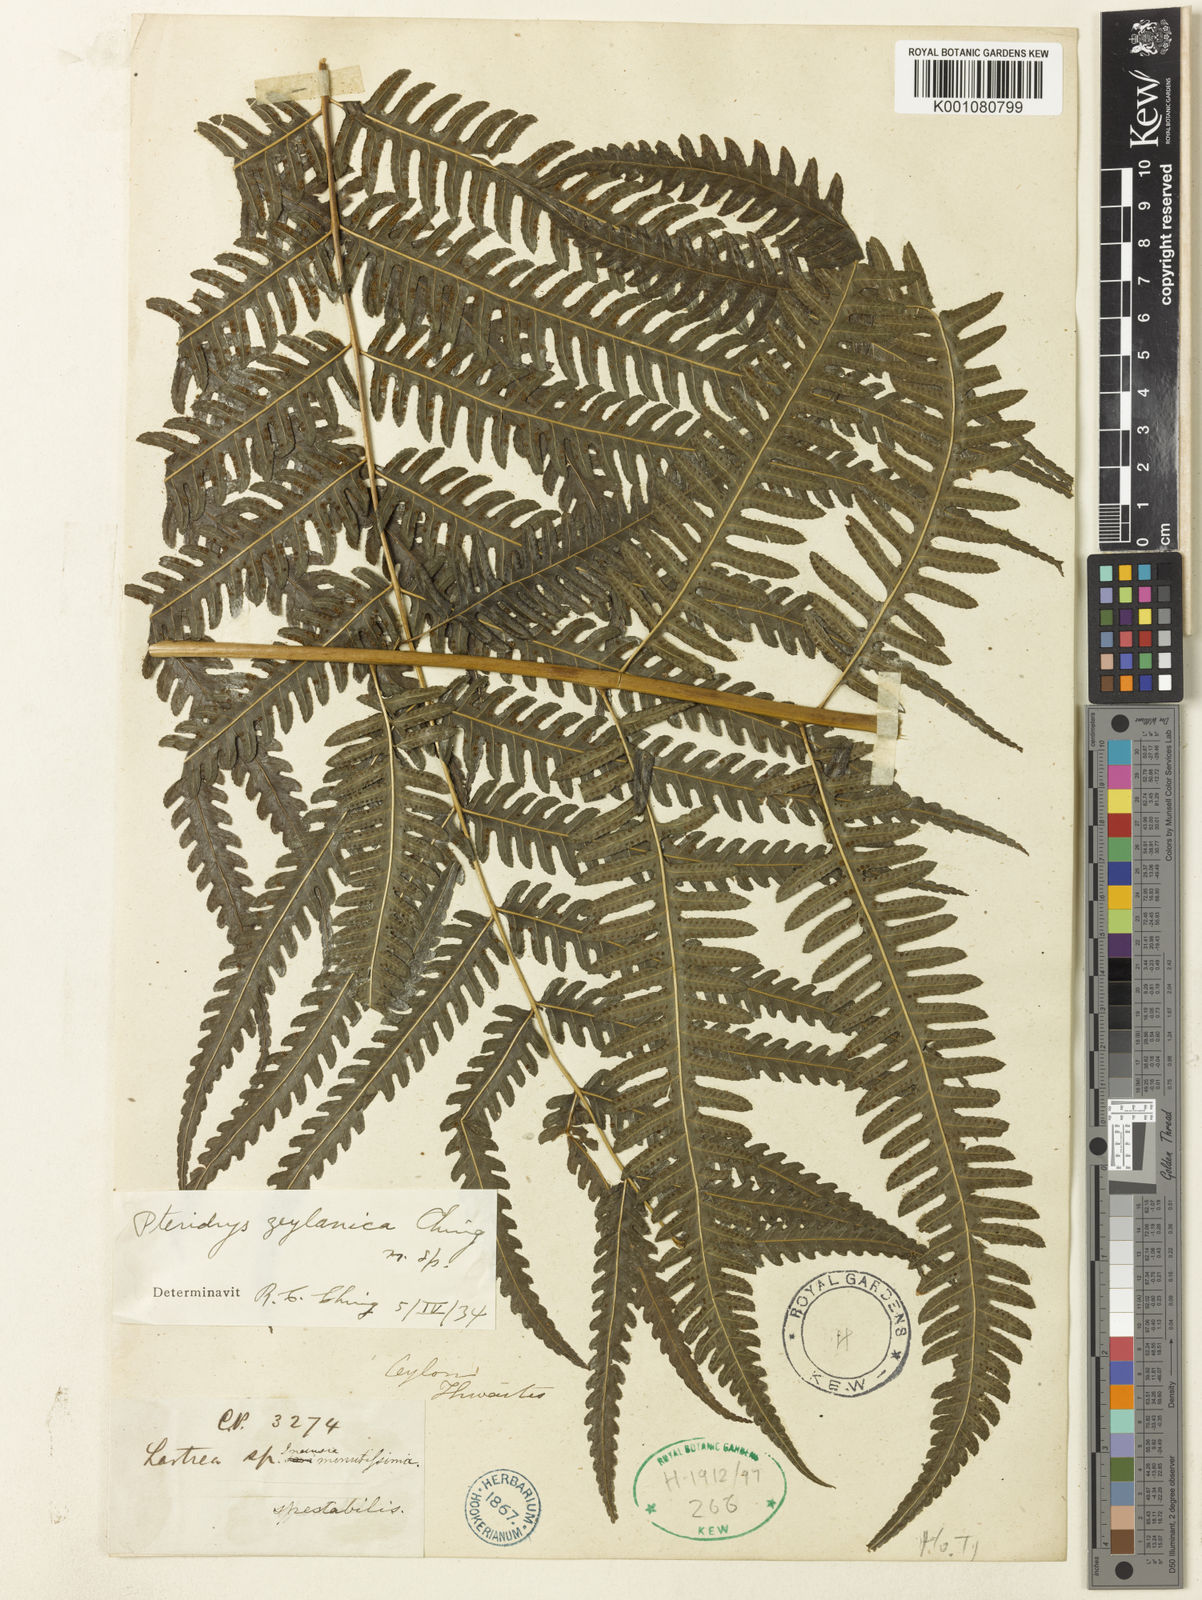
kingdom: Plantae
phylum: Tracheophyta
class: Polypodiopsida
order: Polypodiales
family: Tectariaceae
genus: Pteridrys
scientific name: Pteridrys cnemidaria
